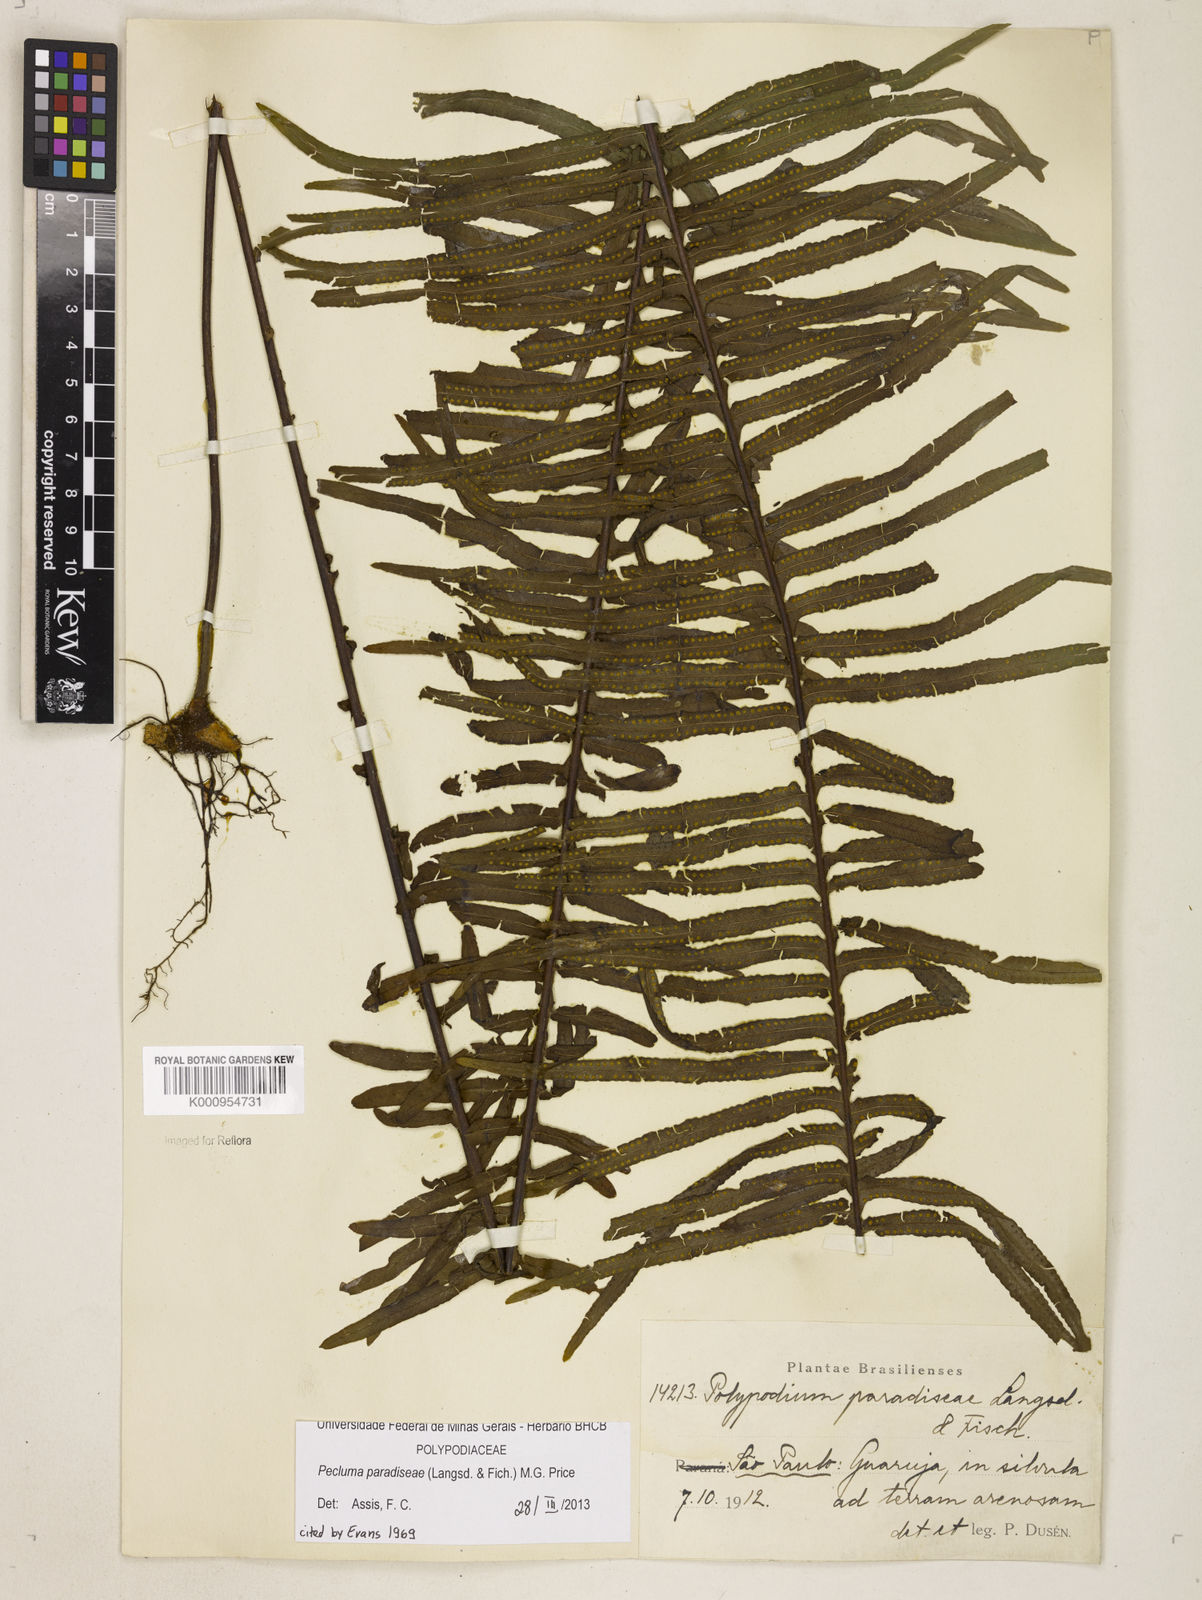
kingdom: Plantae
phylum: Tracheophyta
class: Polypodiopsida
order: Polypodiales
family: Polypodiaceae
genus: Pecluma
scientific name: Pecluma paradiseae
